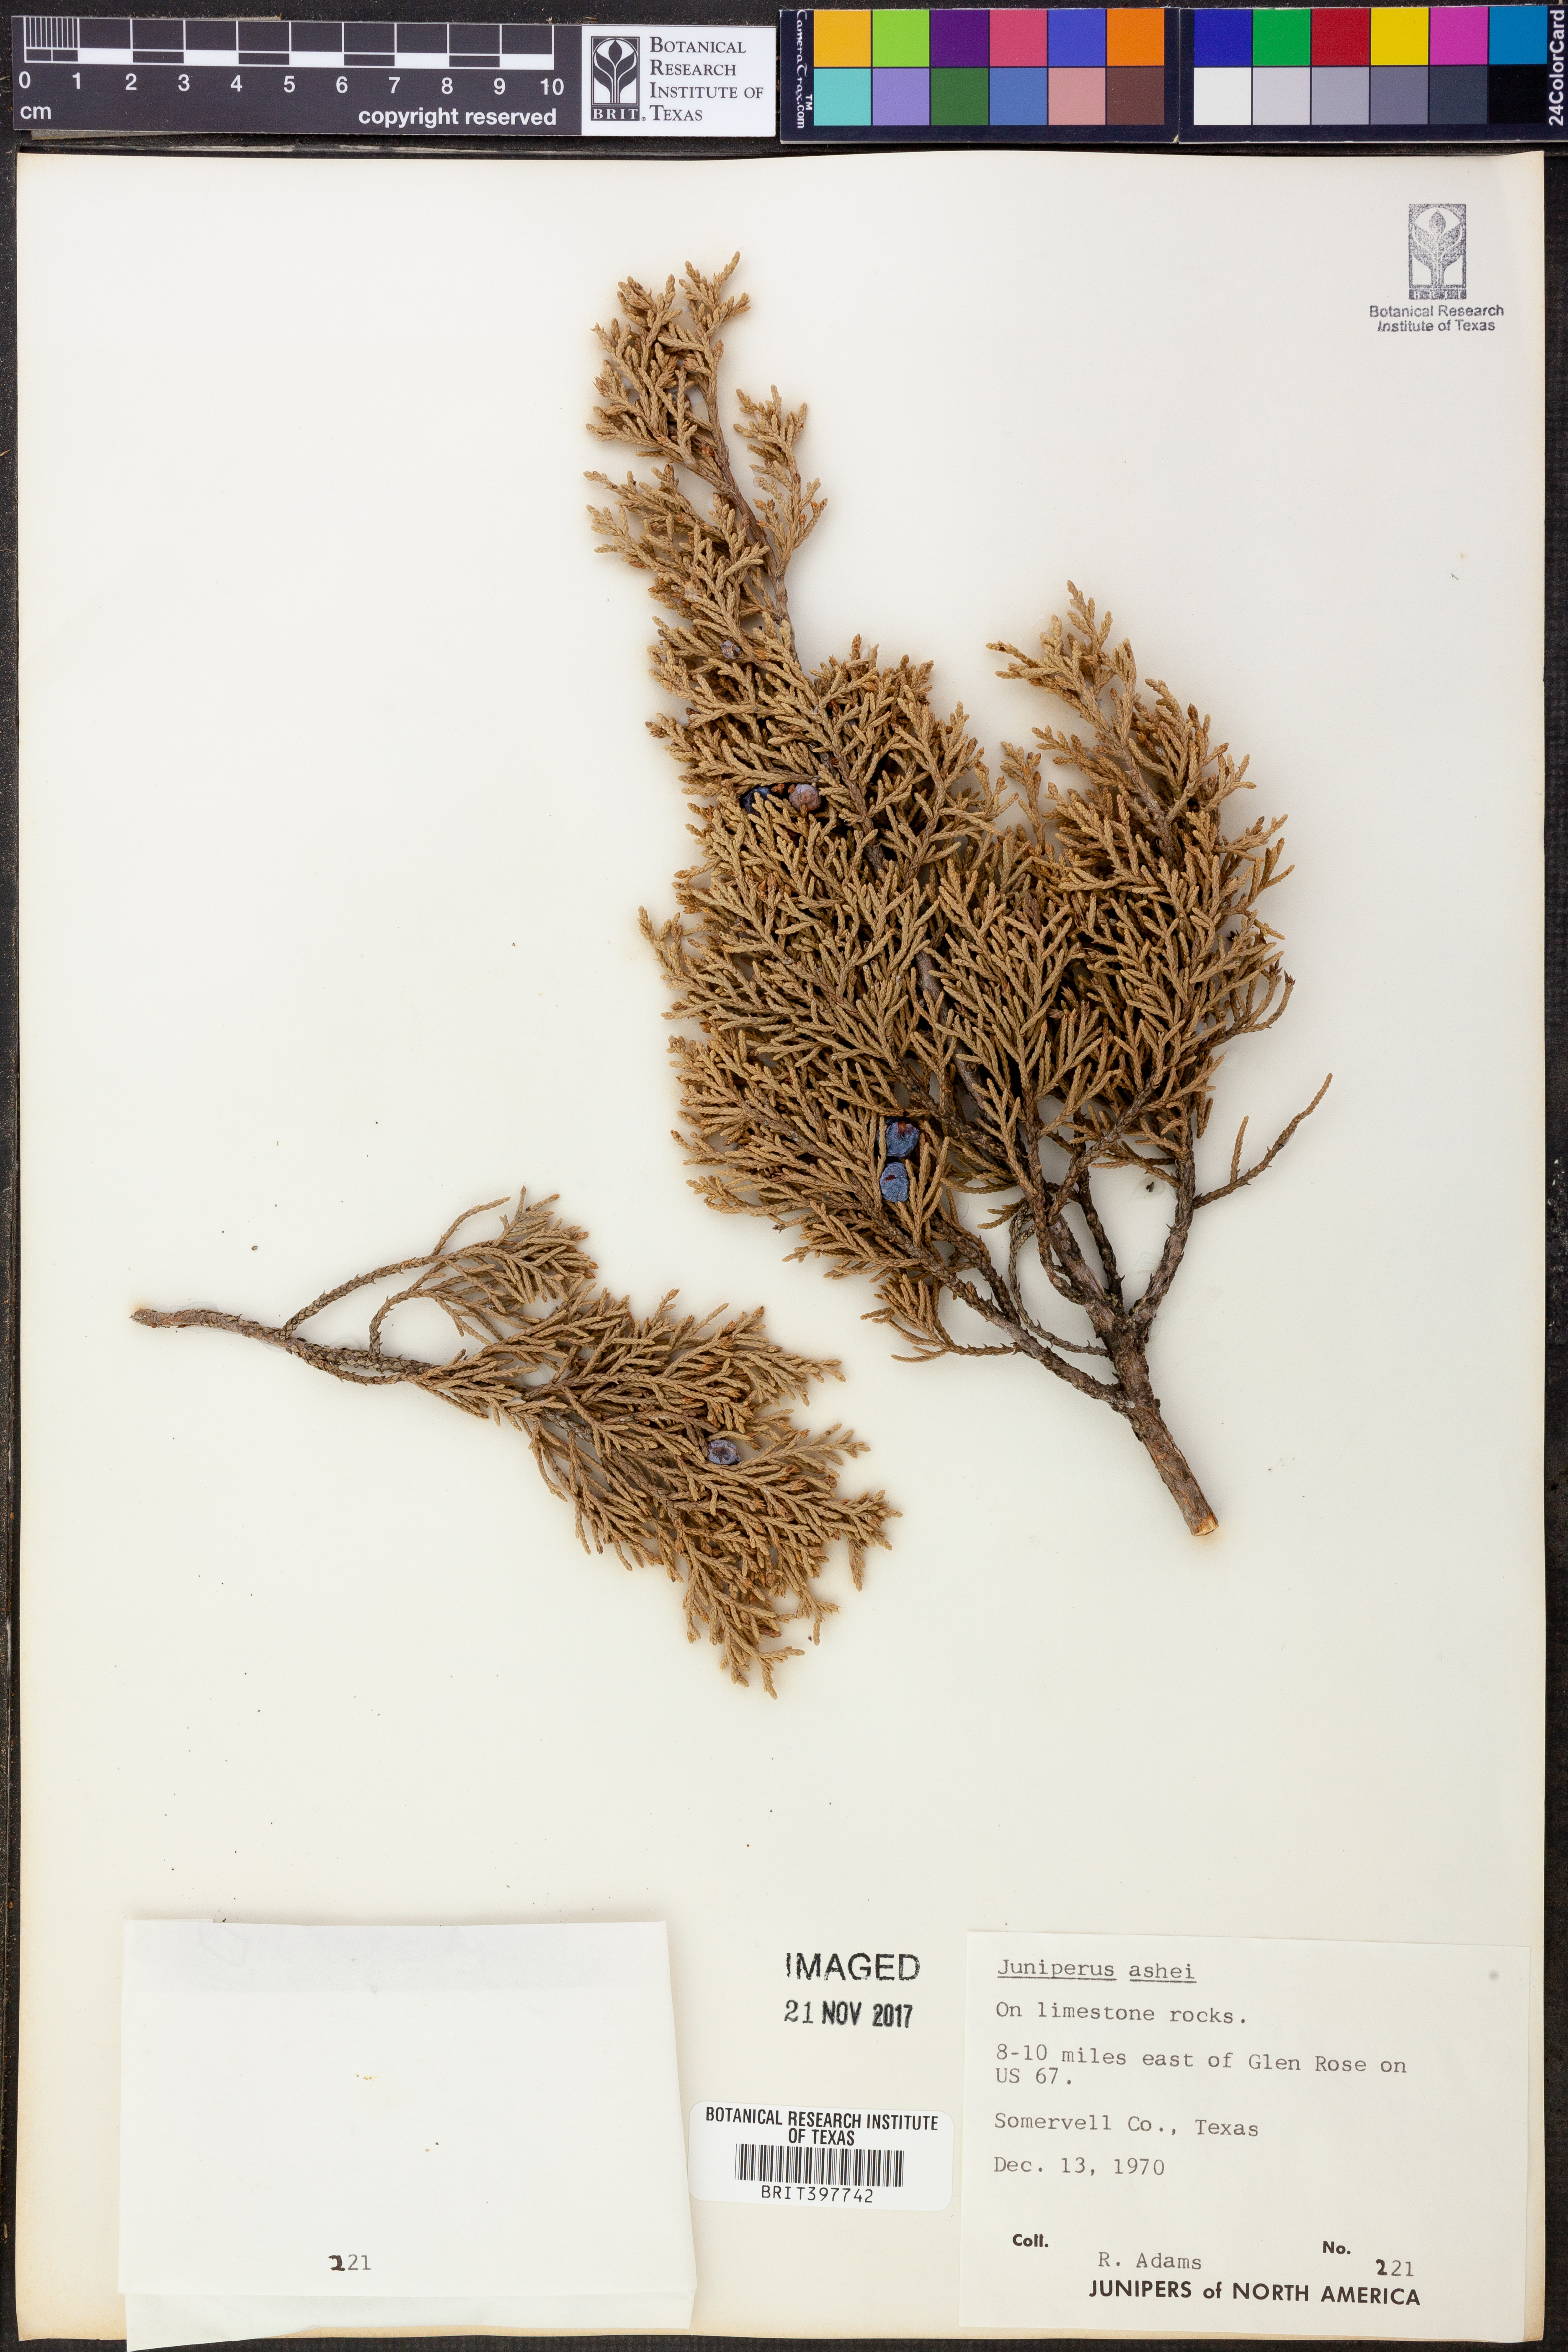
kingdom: Plantae
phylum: Tracheophyta
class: Pinopsida
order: Pinales
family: Cupressaceae
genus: Juniperus
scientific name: Juniperus ashei
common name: Mexican juniper
